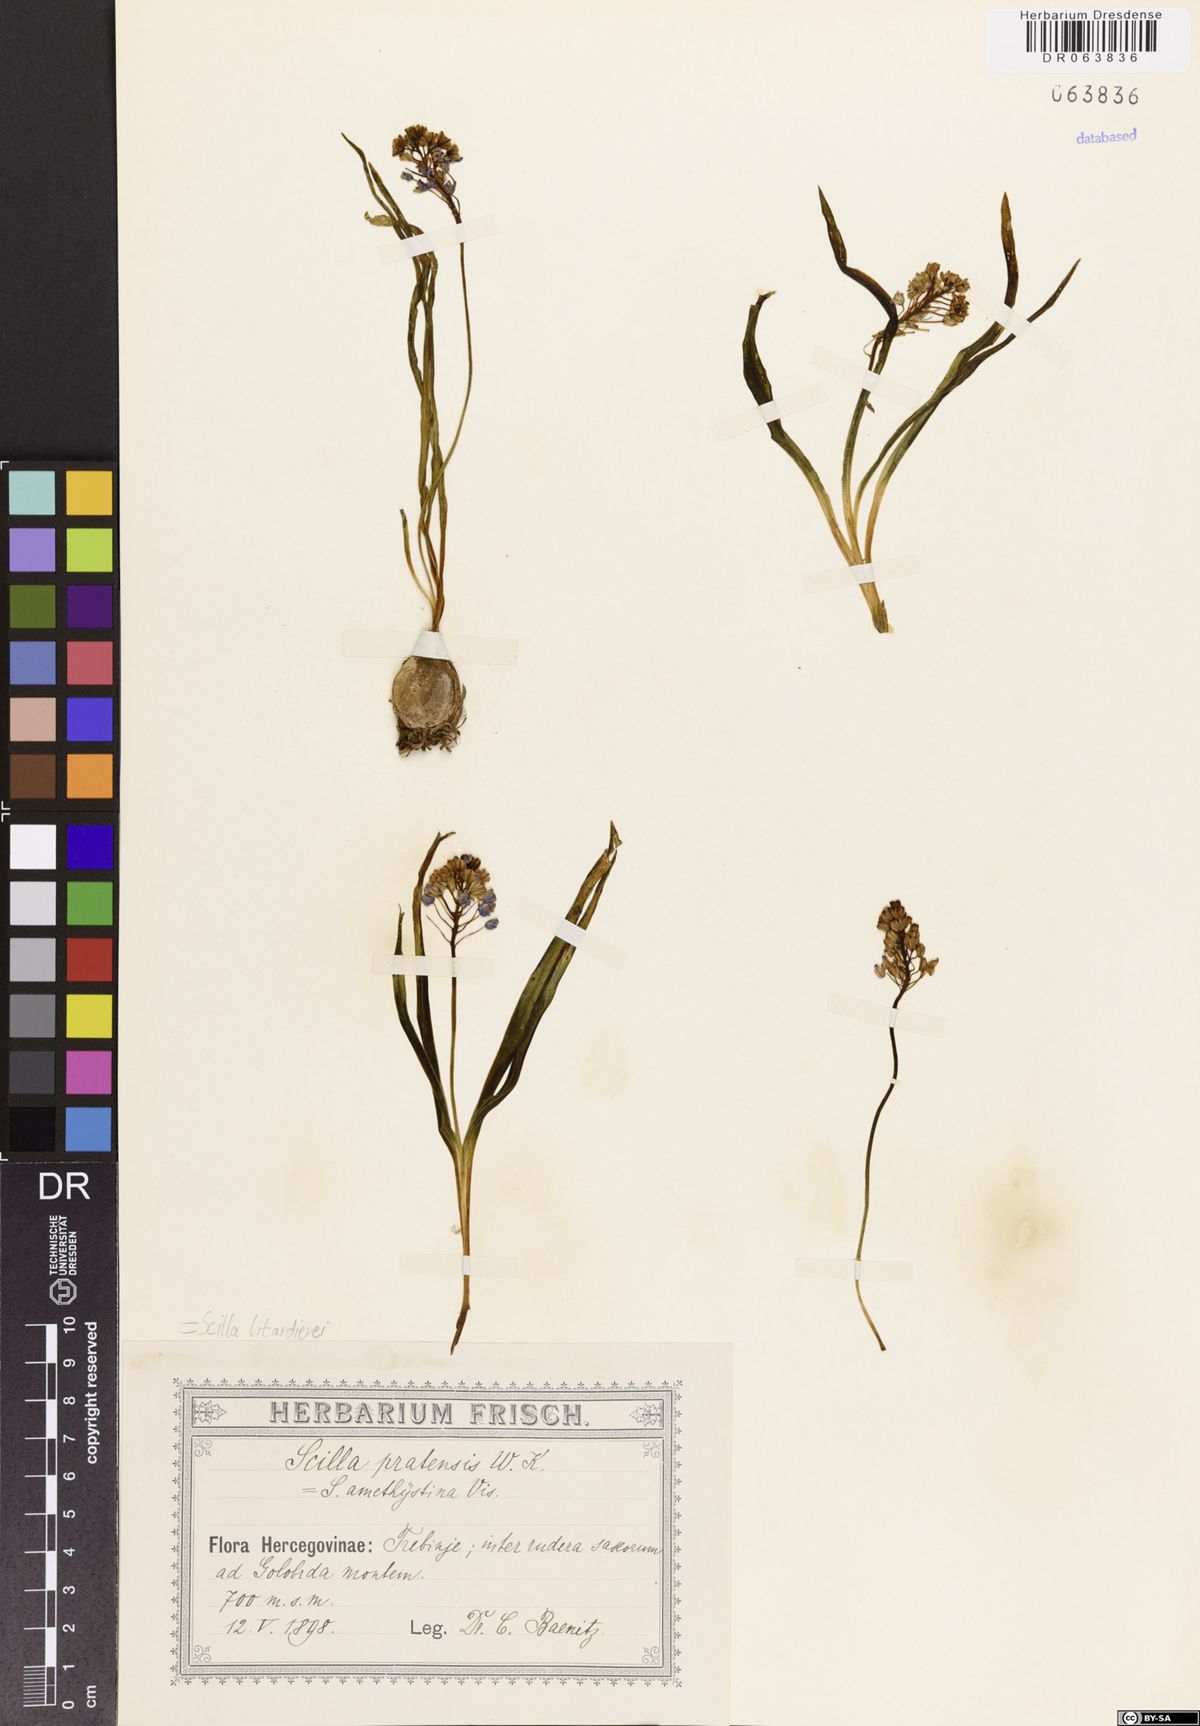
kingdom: Plantae
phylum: Tracheophyta
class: Liliopsida
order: Asparagales
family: Asparagaceae
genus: Scilla
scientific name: Scilla litardierei
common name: Amethyst meadow squill
